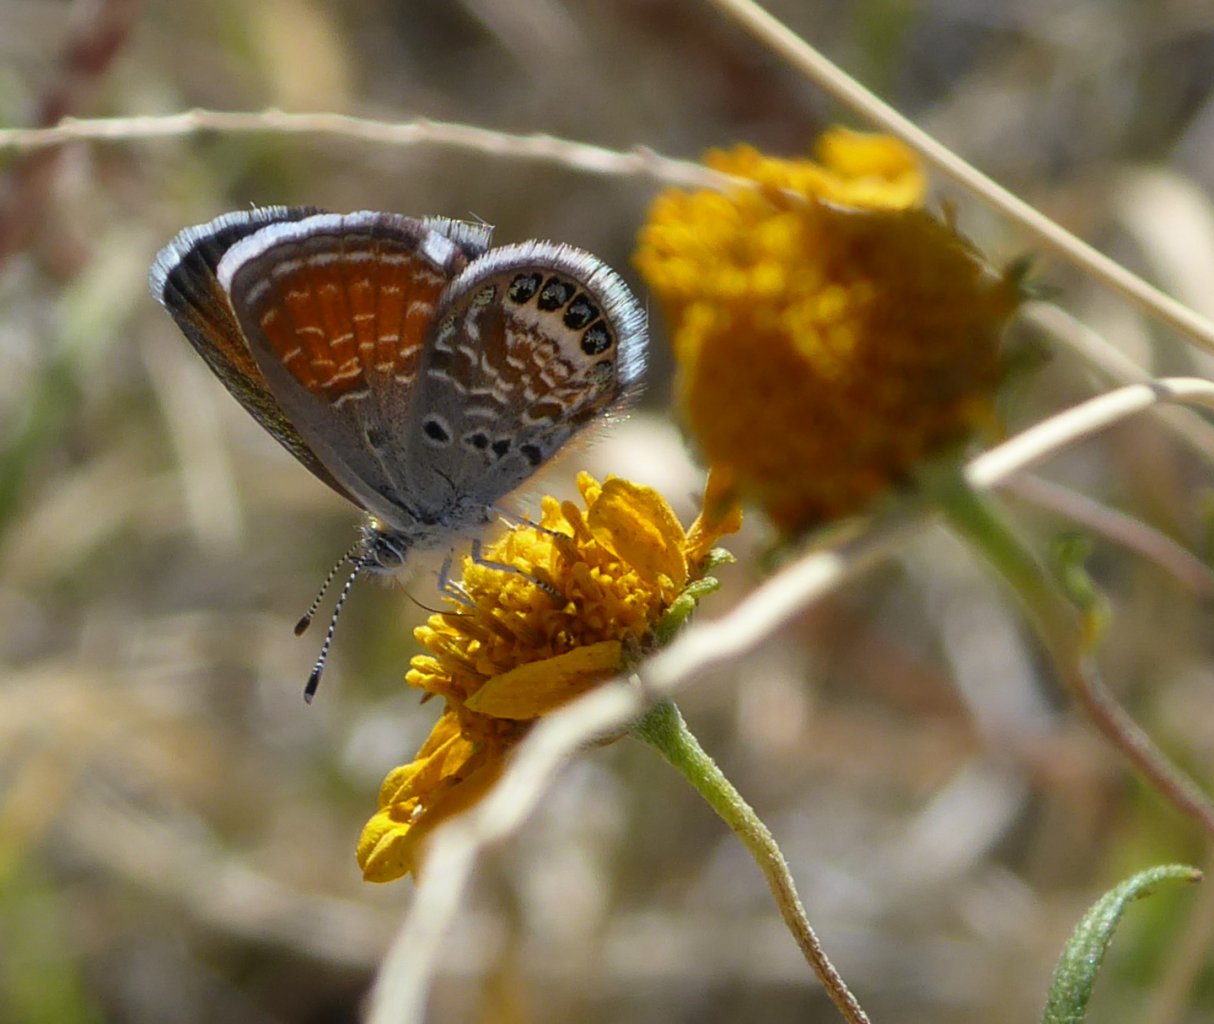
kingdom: Animalia
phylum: Arthropoda
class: Insecta
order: Lepidoptera
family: Lycaenidae
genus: Brephidium
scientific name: Brephidium exilis
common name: Western Pygmy-Blue
